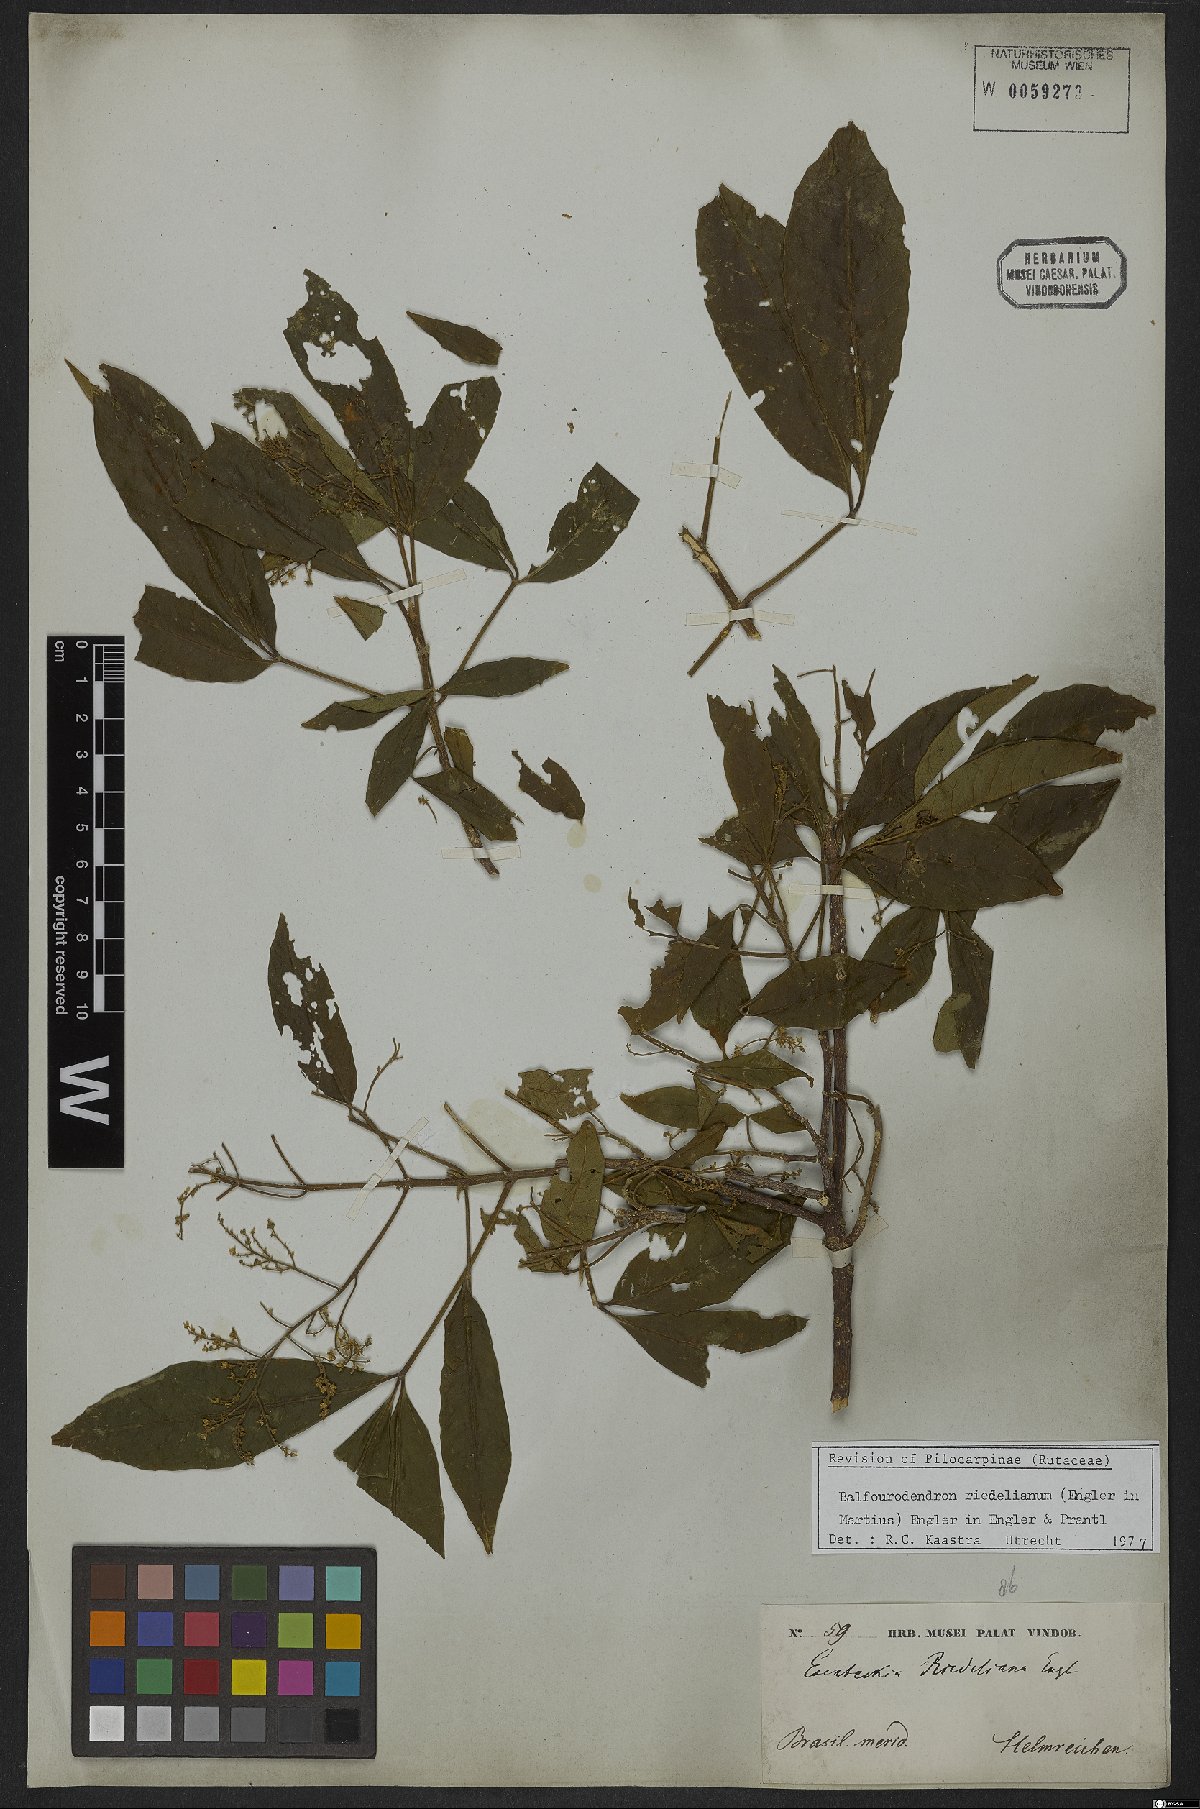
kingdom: Plantae
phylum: Tracheophyta
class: Magnoliopsida
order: Sapindales
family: Rutaceae
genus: Balfourodendron
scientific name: Balfourodendron riedelianum
